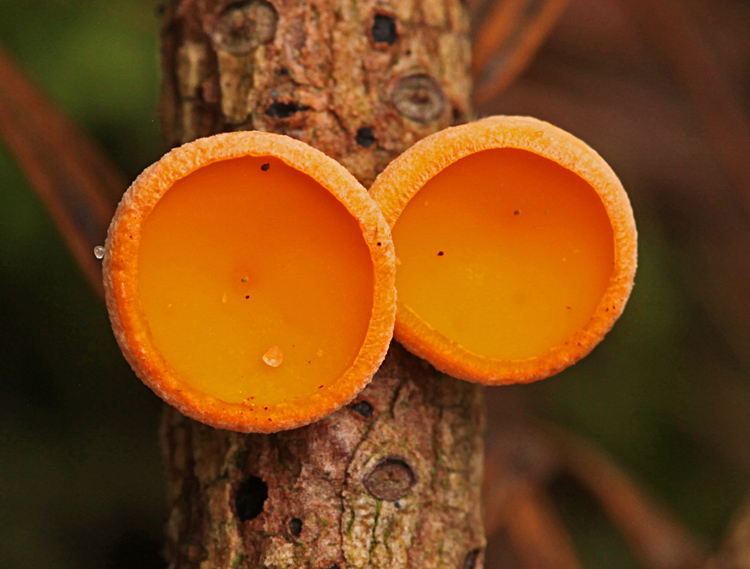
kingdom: Fungi
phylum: Ascomycota
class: Pezizomycetes
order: Pezizales
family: Sarcoscyphaceae
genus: Pithya
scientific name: Pithya vulgaris
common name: stor dukatbæger
